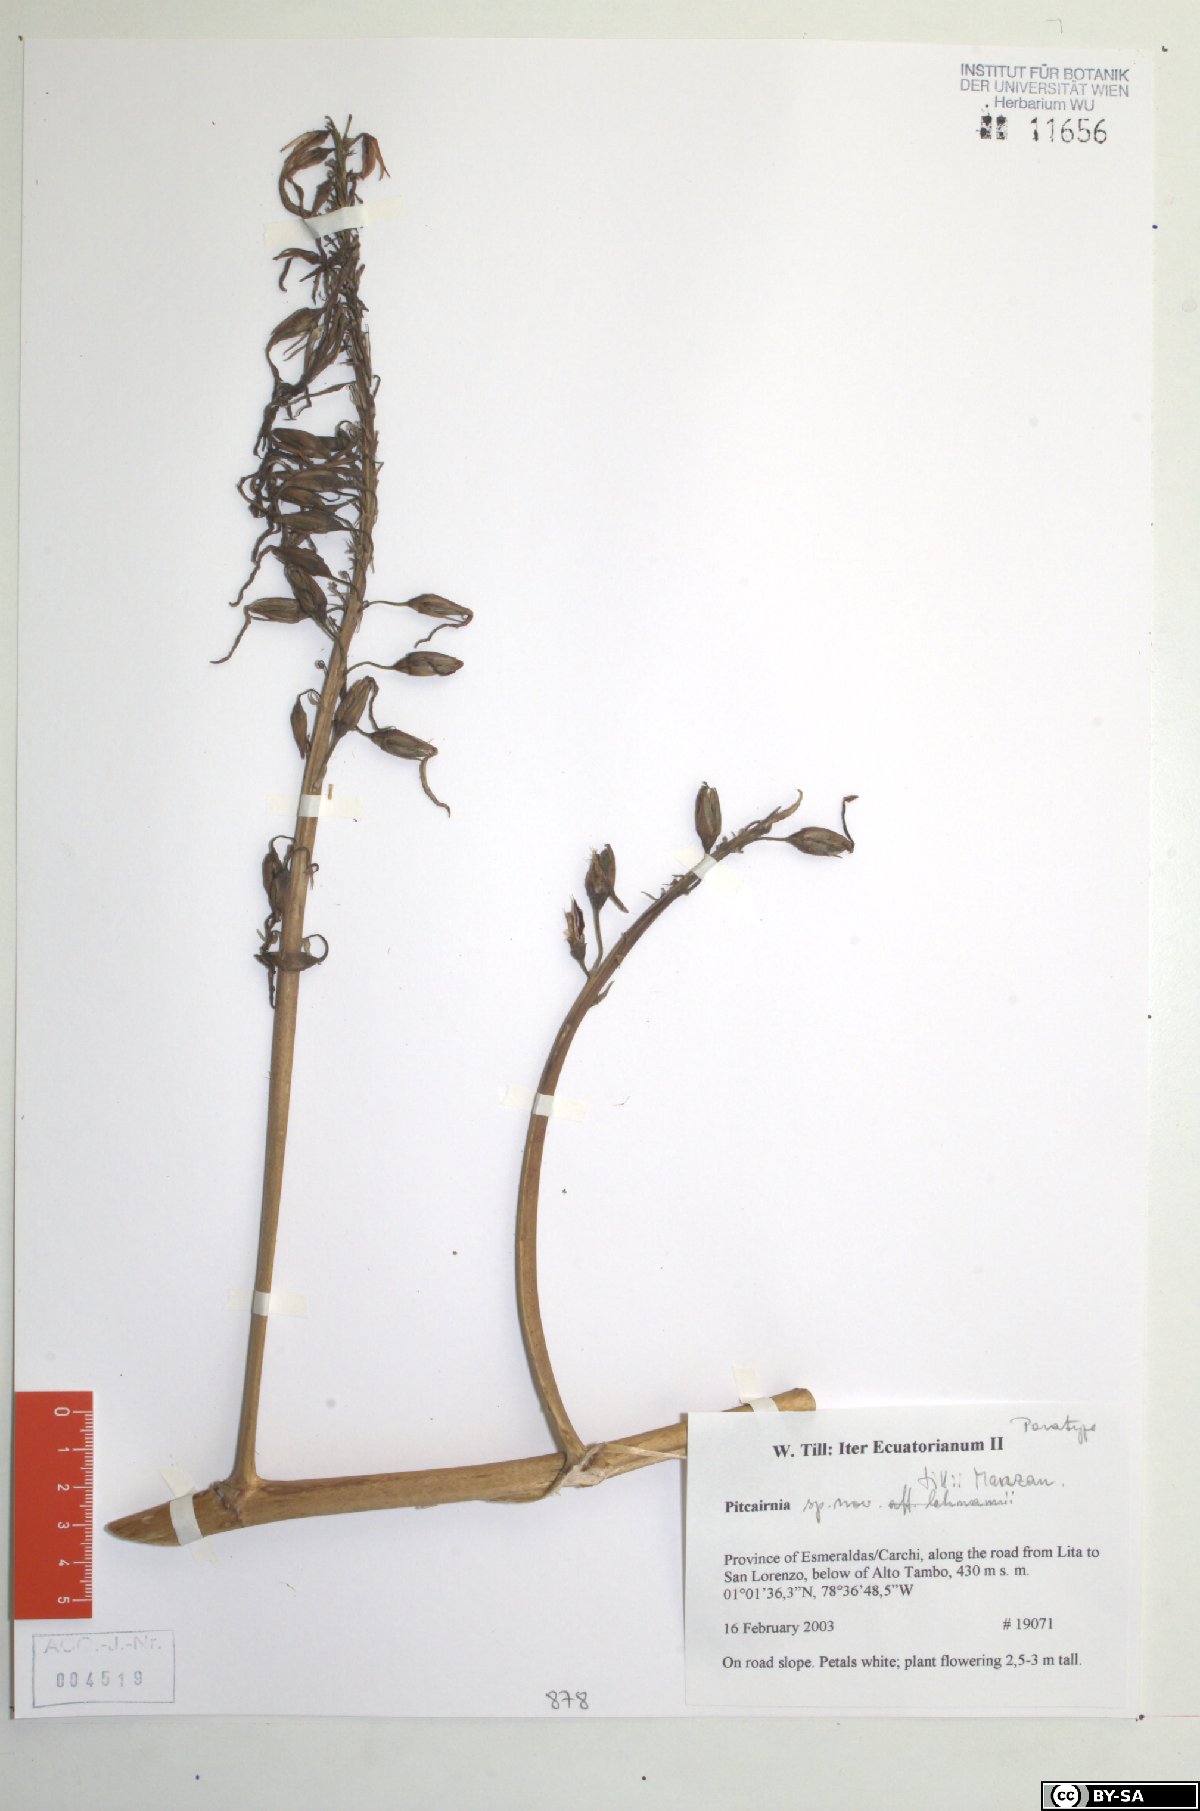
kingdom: Plantae
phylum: Tracheophyta
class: Liliopsida
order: Poales
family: Bromeliaceae
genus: Pitcairnia
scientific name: Pitcairnia tillii
